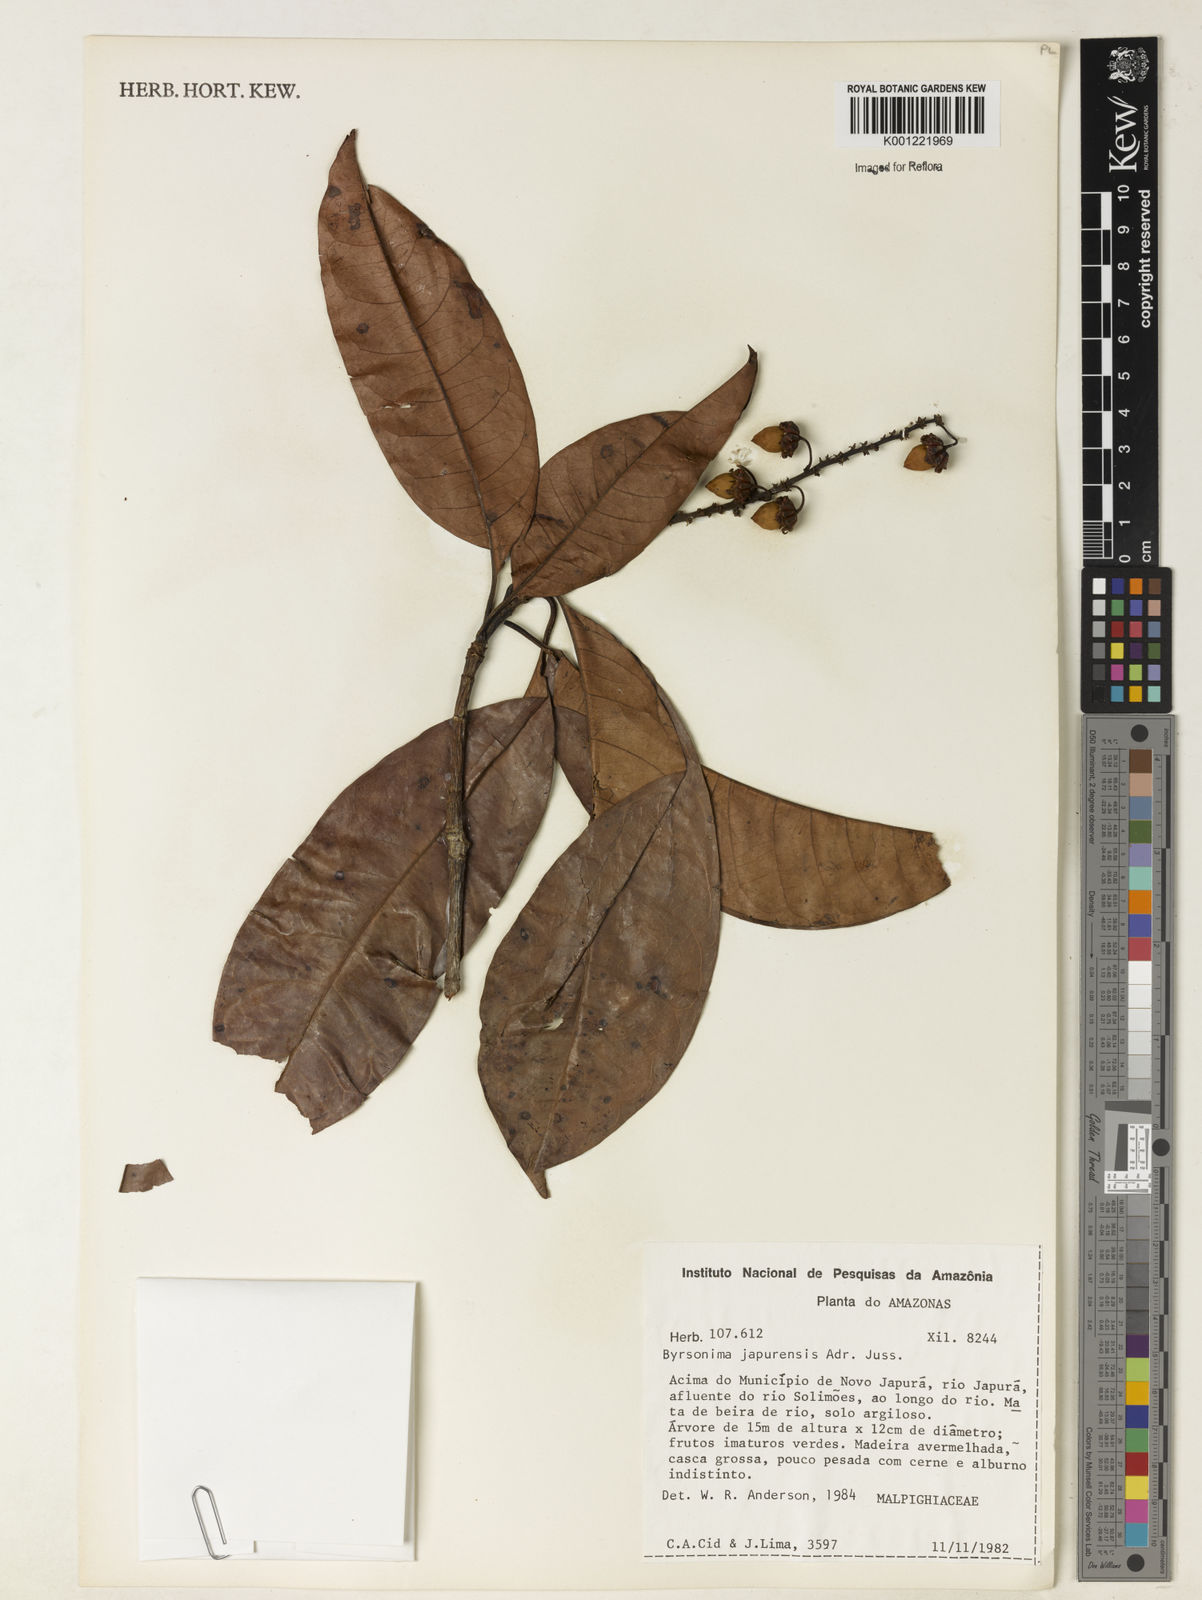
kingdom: Plantae
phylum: Tracheophyta
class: Magnoliopsida
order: Malpighiales
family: Malpighiaceae
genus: Byrsonima
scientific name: Byrsonima japurensis
